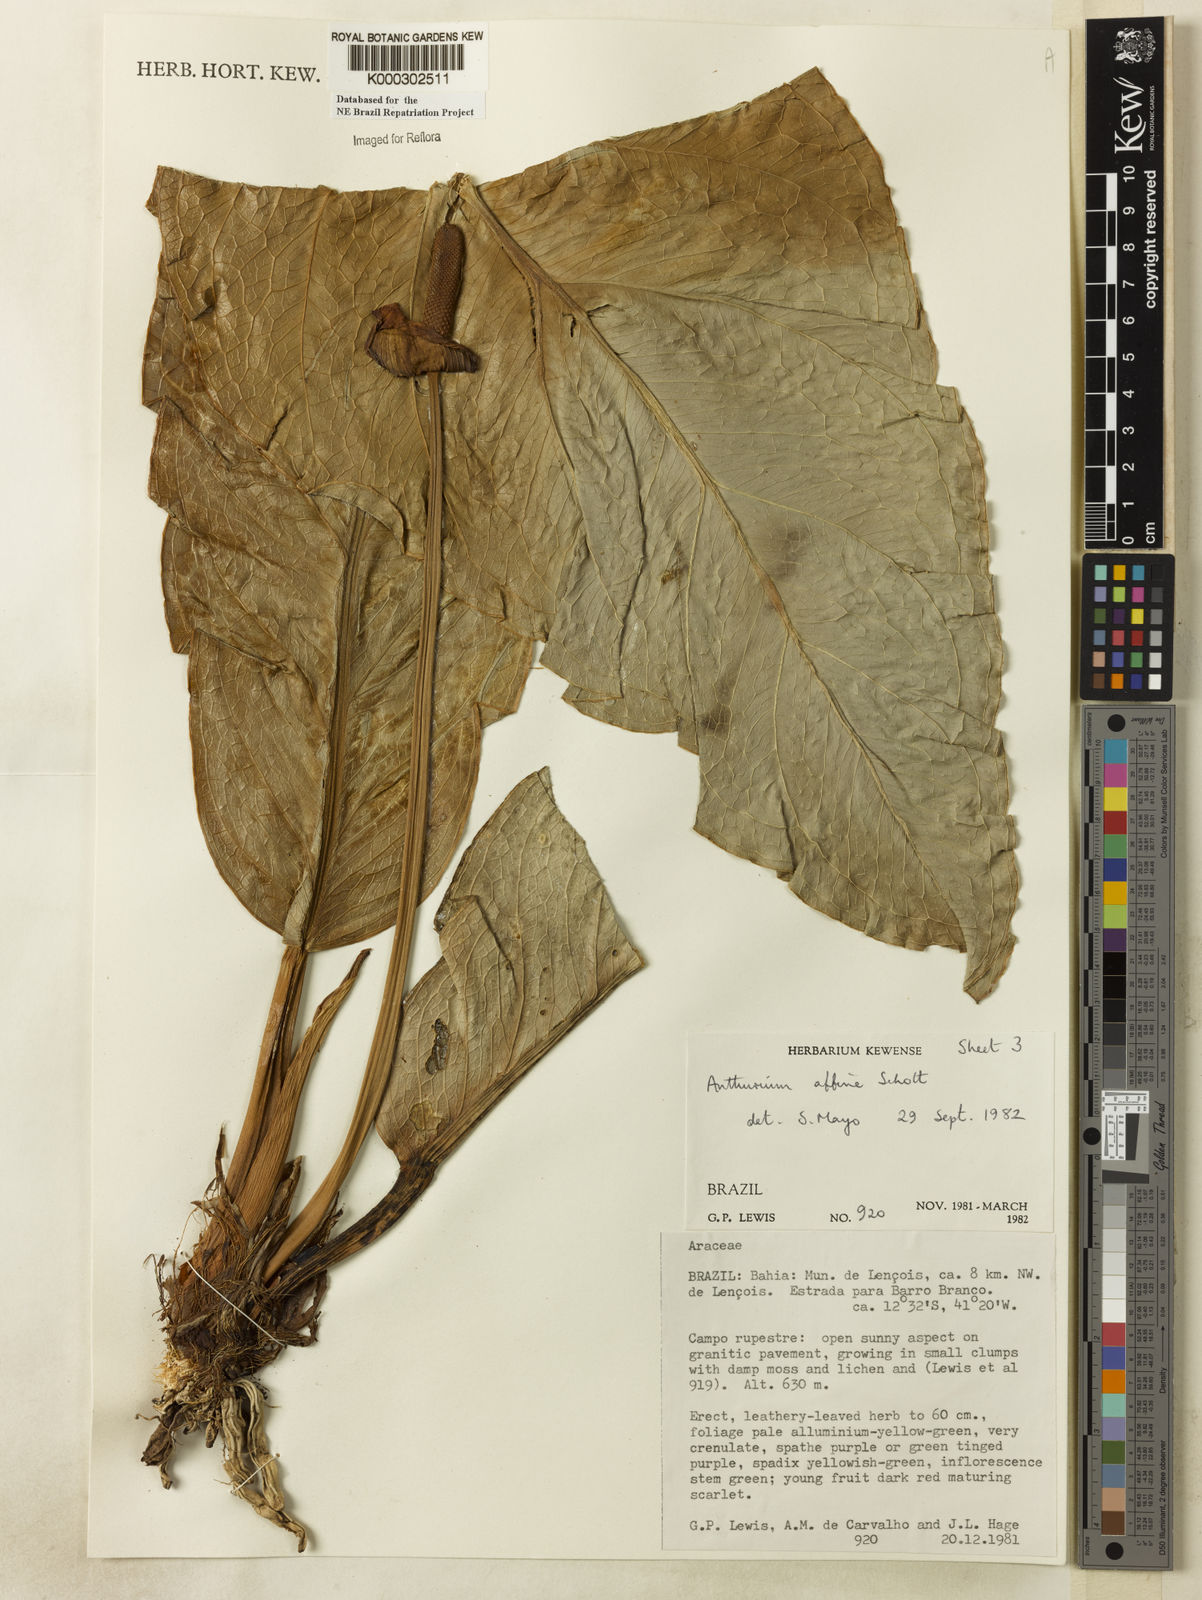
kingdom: Plantae
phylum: Tracheophyta
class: Liliopsida
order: Alismatales
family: Araceae
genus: Anthurium
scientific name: Anthurium affine
